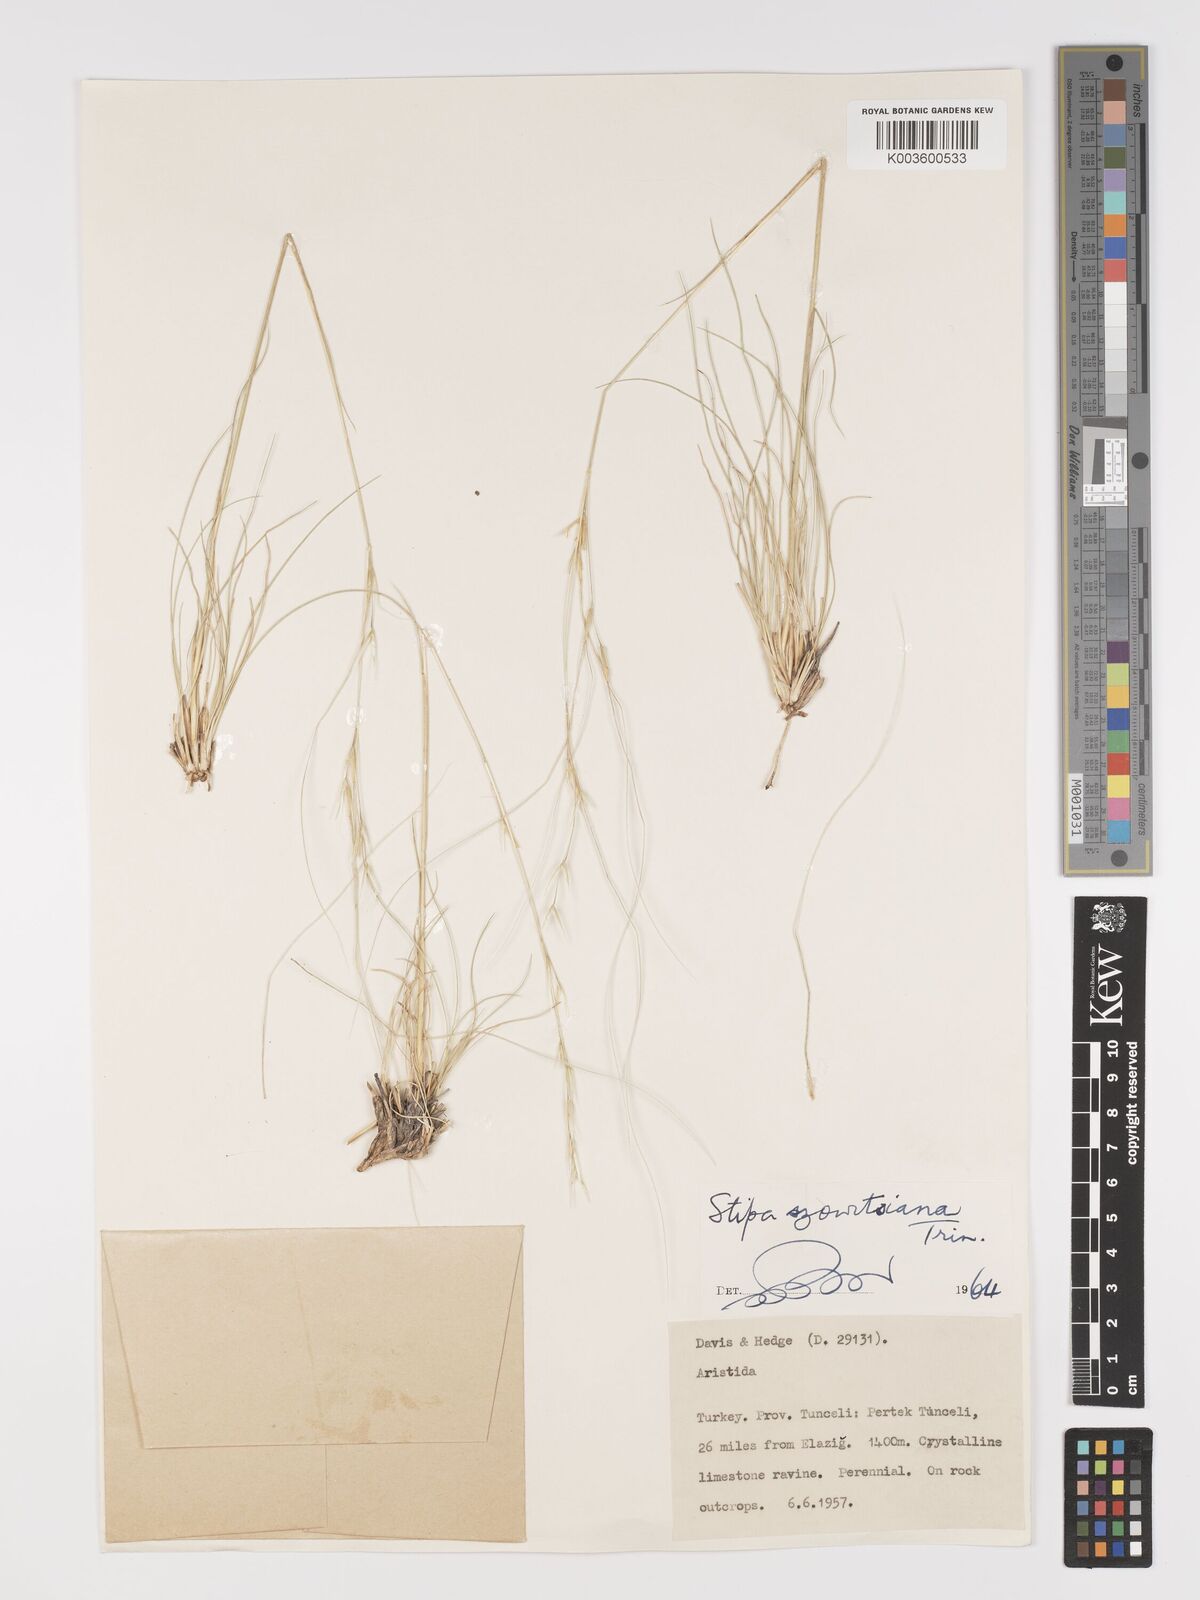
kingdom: Plantae
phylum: Tracheophyta
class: Liliopsida
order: Poales
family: Poaceae
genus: Stipa
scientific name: Stipa barbata
